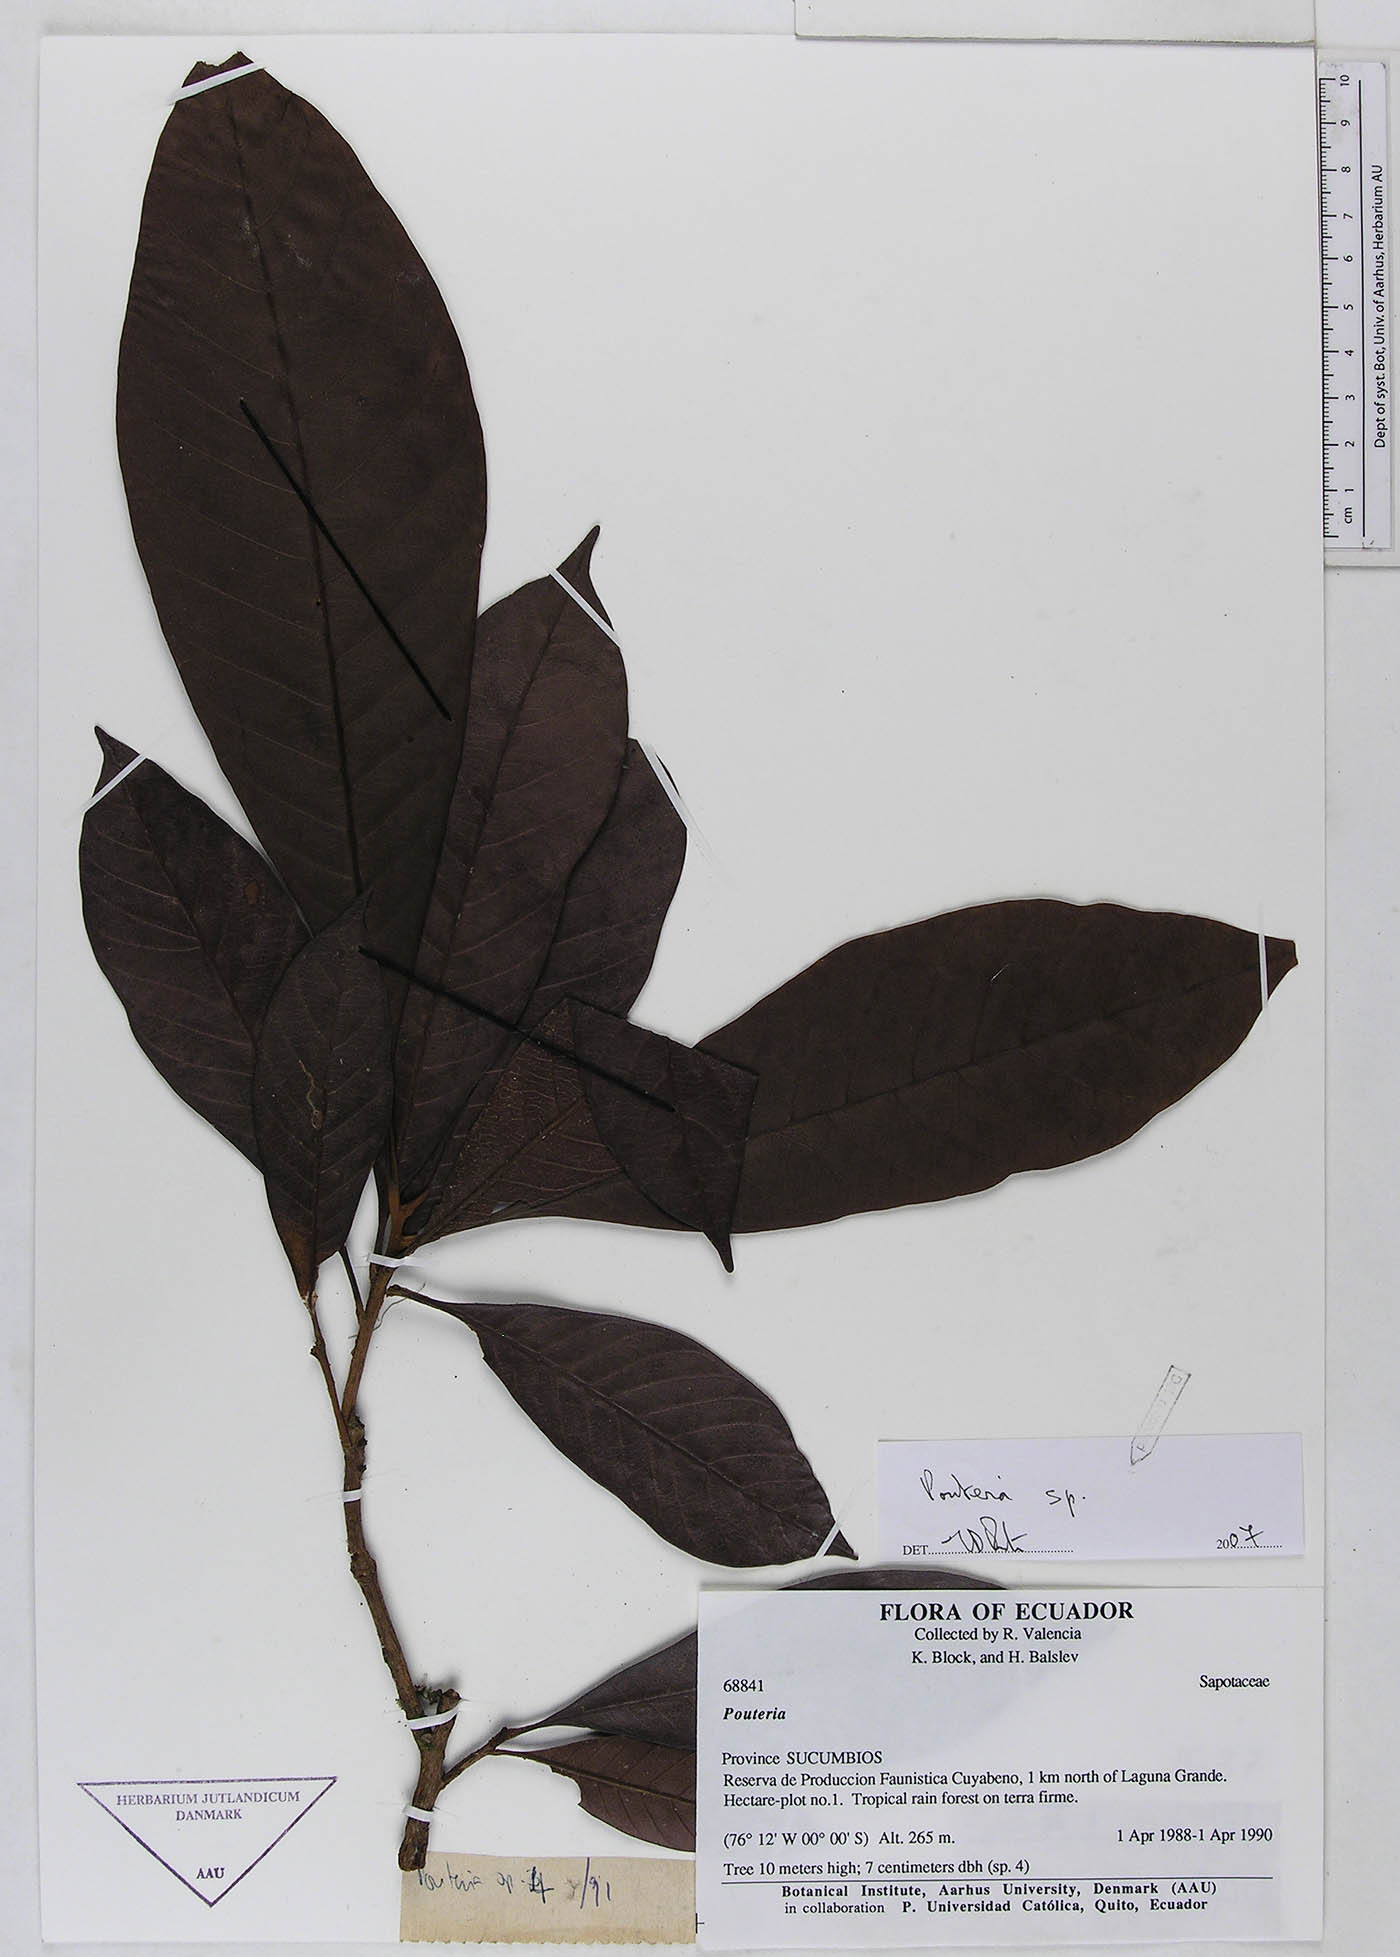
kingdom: Plantae
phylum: Tracheophyta
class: Magnoliopsida
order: Ericales
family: Sapotaceae
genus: Pouteria
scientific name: Pouteria
